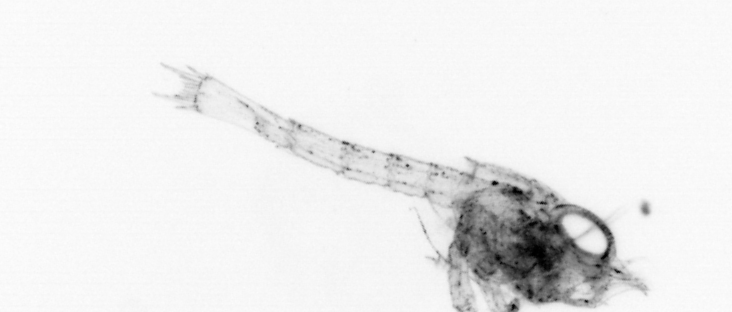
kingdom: Animalia
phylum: Arthropoda
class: Malacostraca
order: Decapoda
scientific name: Decapoda
